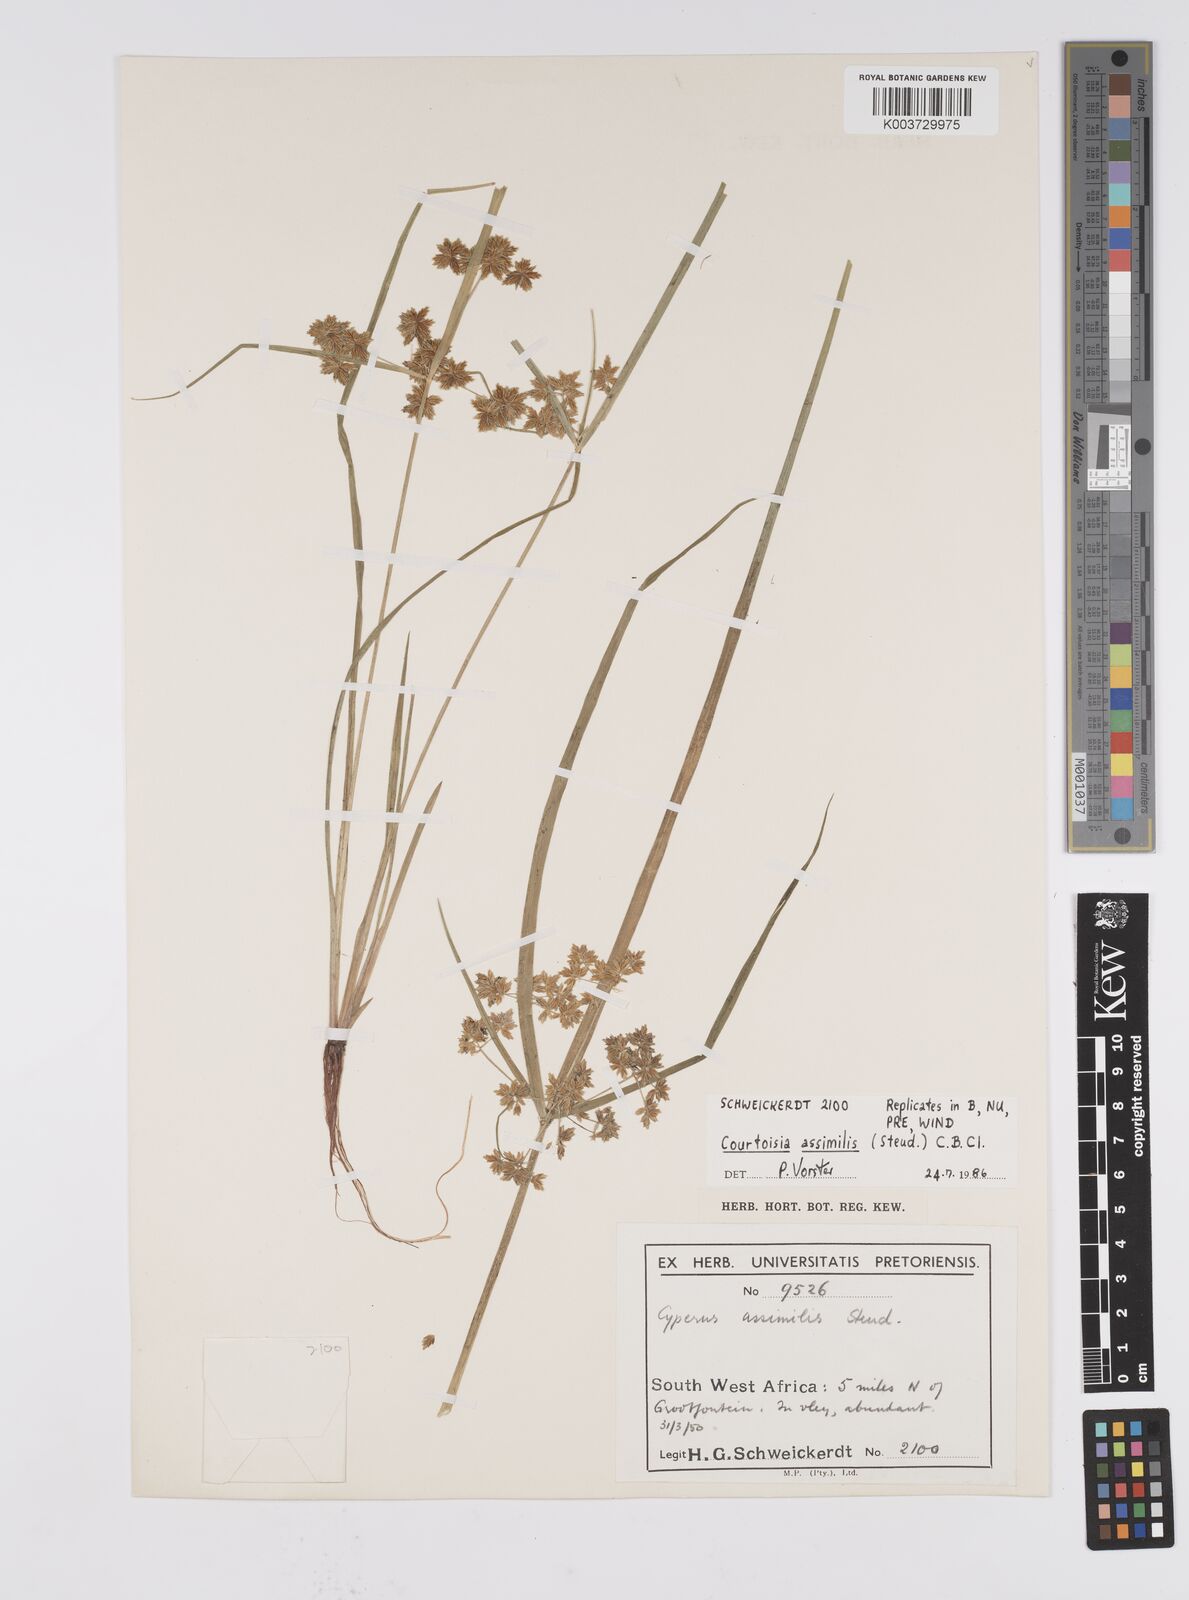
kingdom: Plantae
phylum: Tracheophyta
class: Liliopsida
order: Poales
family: Cyperaceae
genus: Cyperus
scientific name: Cyperus assimilis
